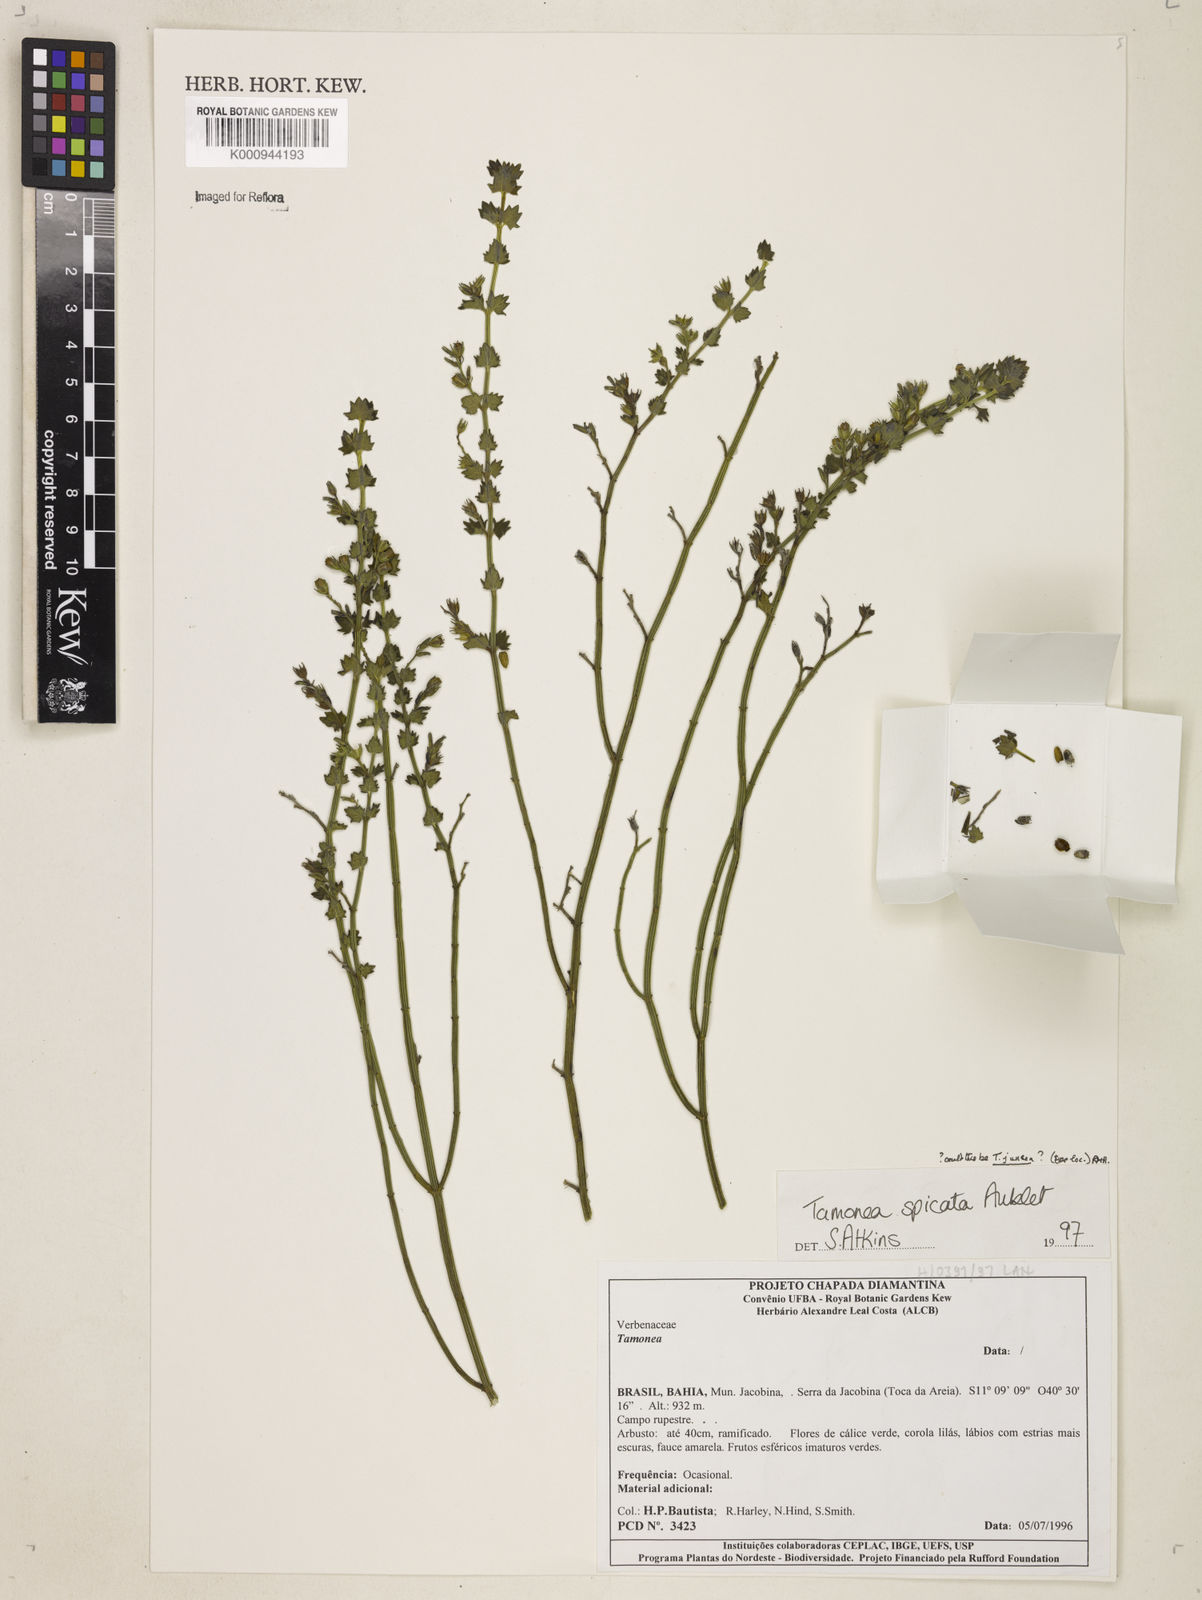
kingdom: Plantae
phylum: Tracheophyta
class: Magnoliopsida
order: Lamiales
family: Verbenaceae
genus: Tamonea
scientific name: Tamonea juncea
